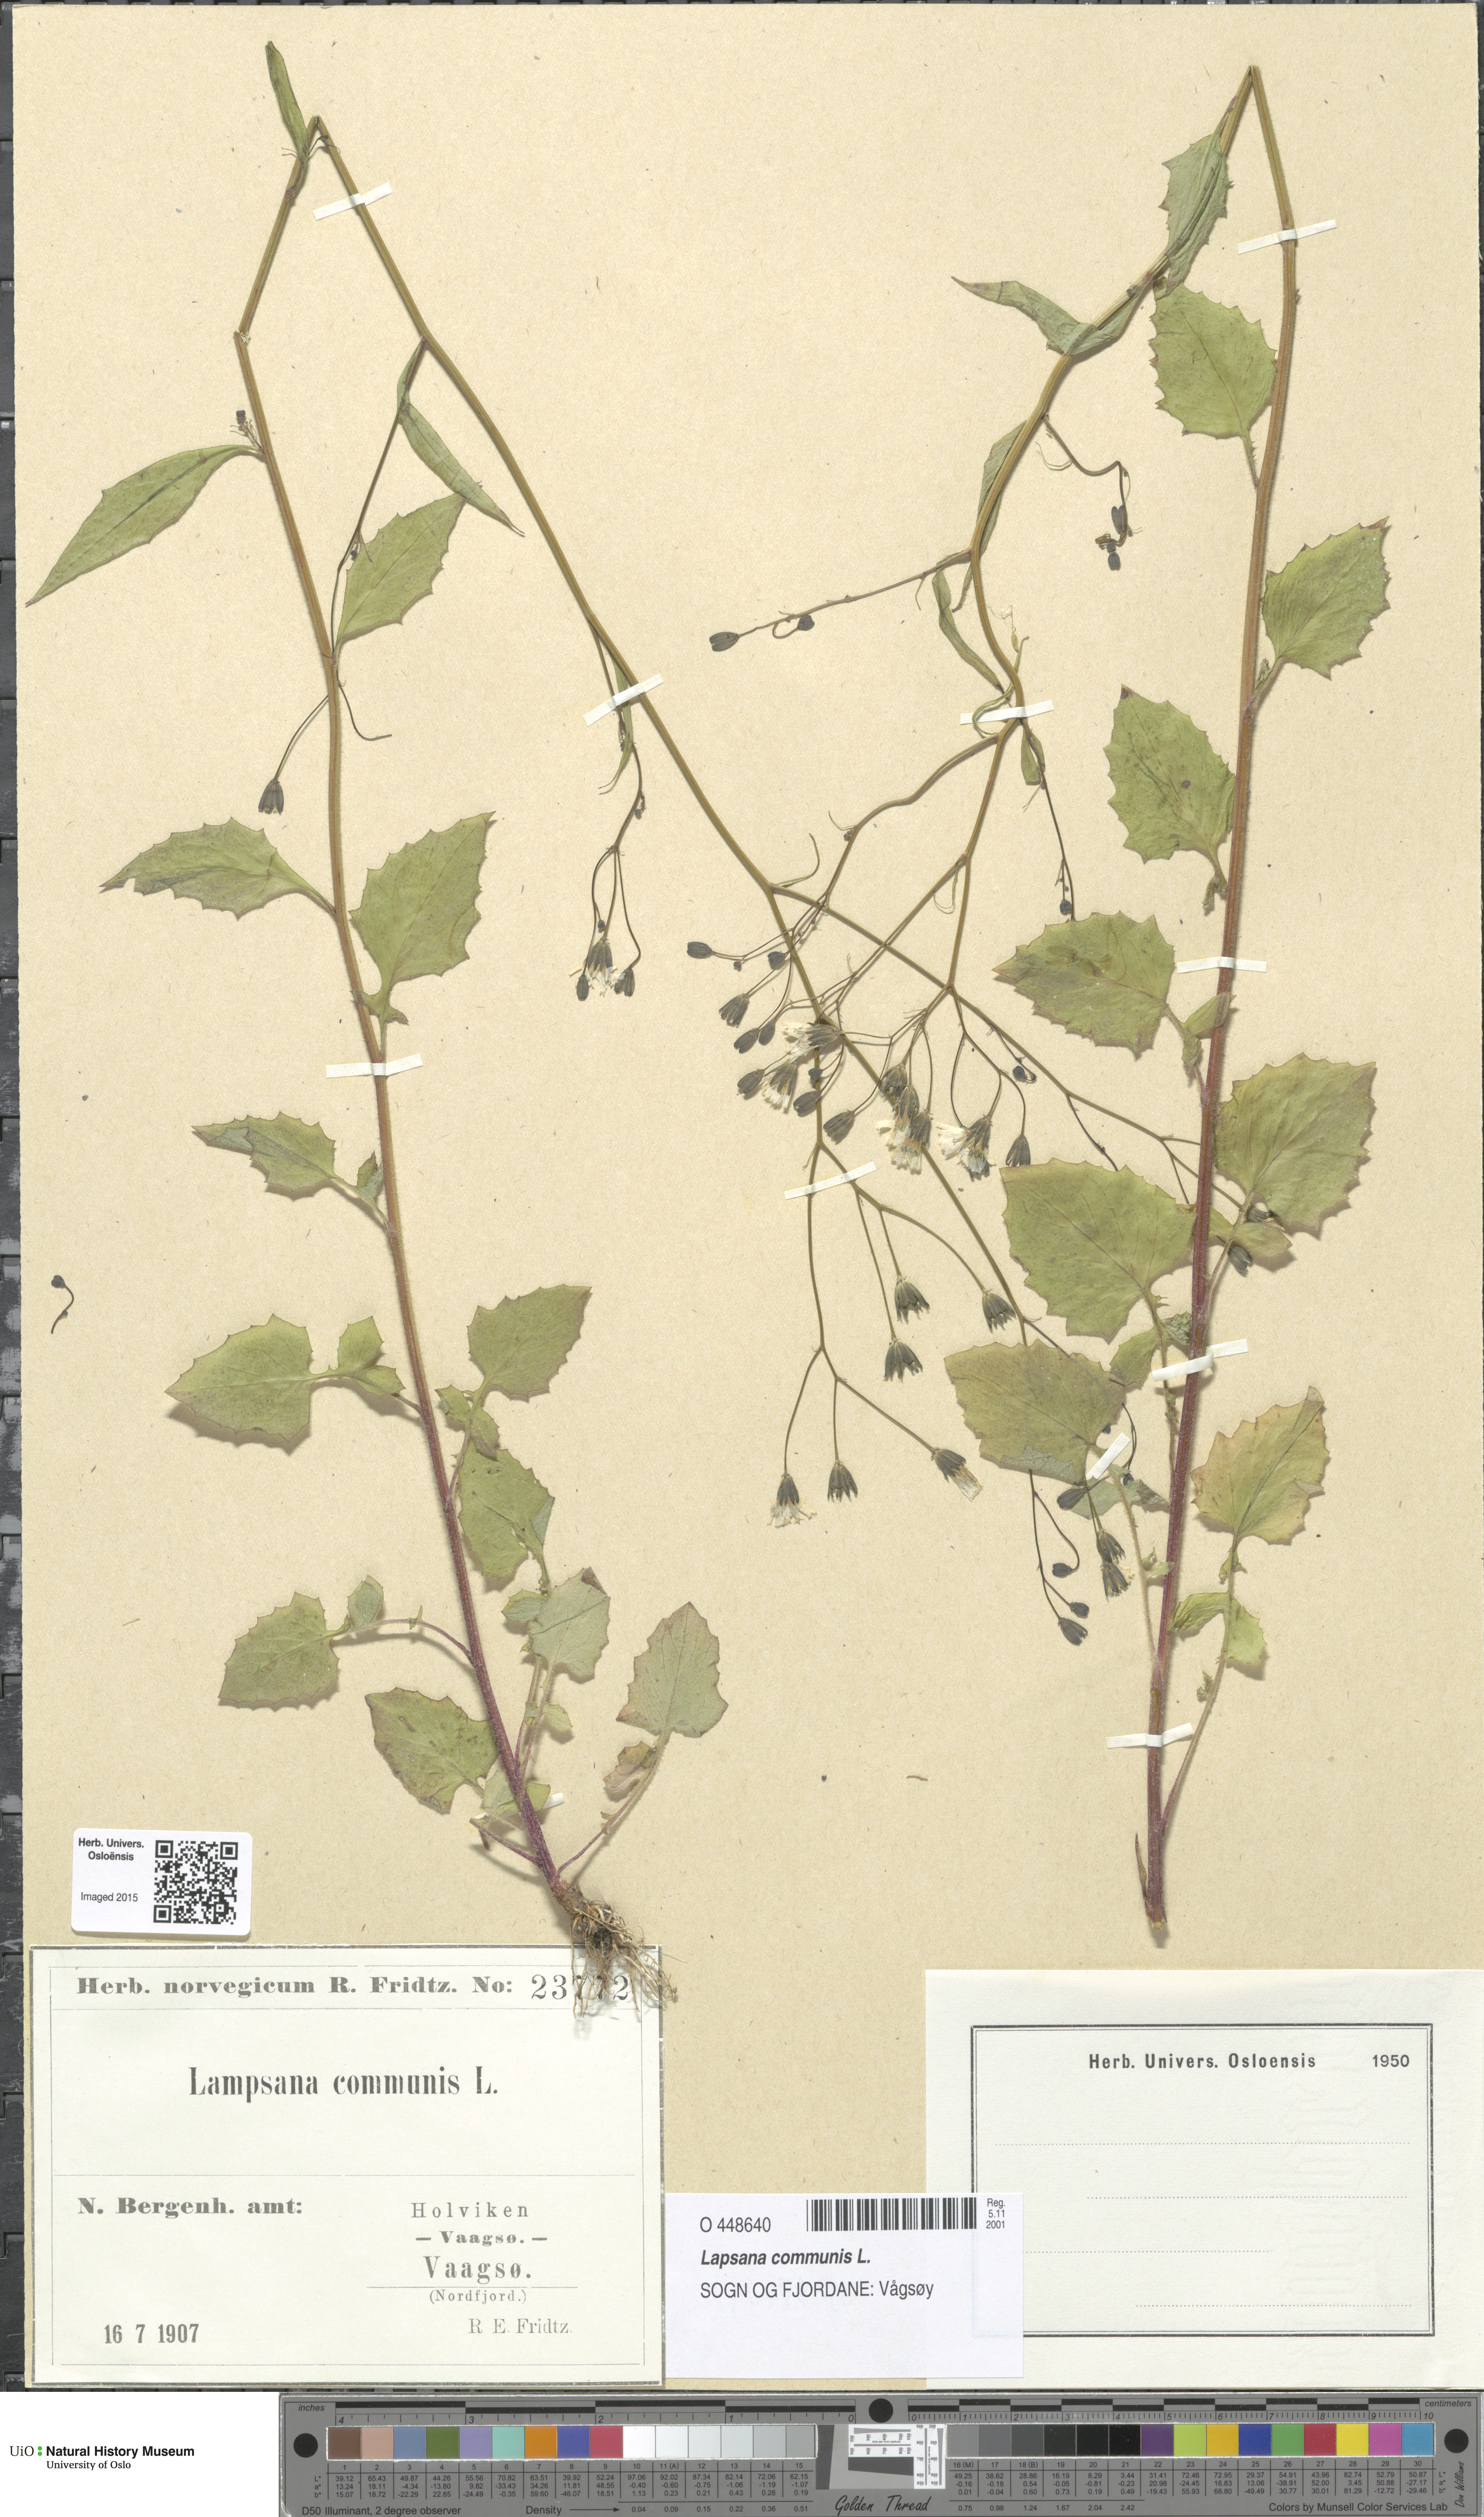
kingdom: Plantae
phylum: Tracheophyta
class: Magnoliopsida
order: Asterales
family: Asteraceae
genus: Lapsana
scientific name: Lapsana communis
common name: Nipplewort
